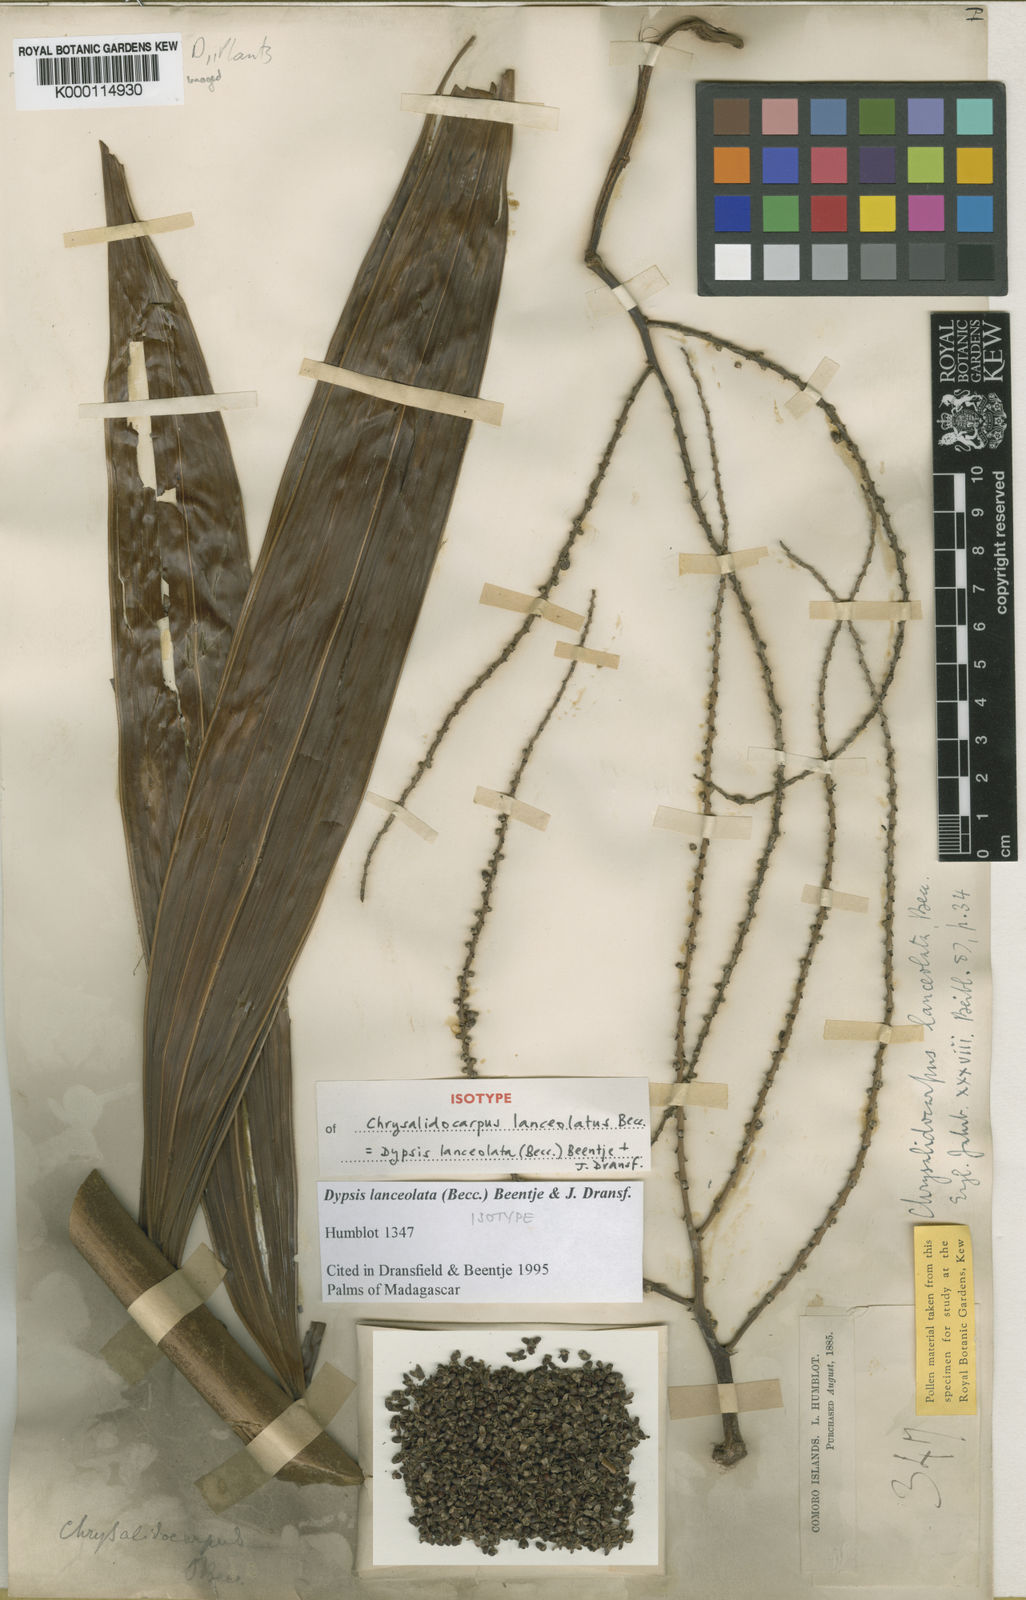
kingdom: Plantae
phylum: Tracheophyta
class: Liliopsida
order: Arecales
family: Arecaceae
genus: Dypsis
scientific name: Dypsis lanceolata
